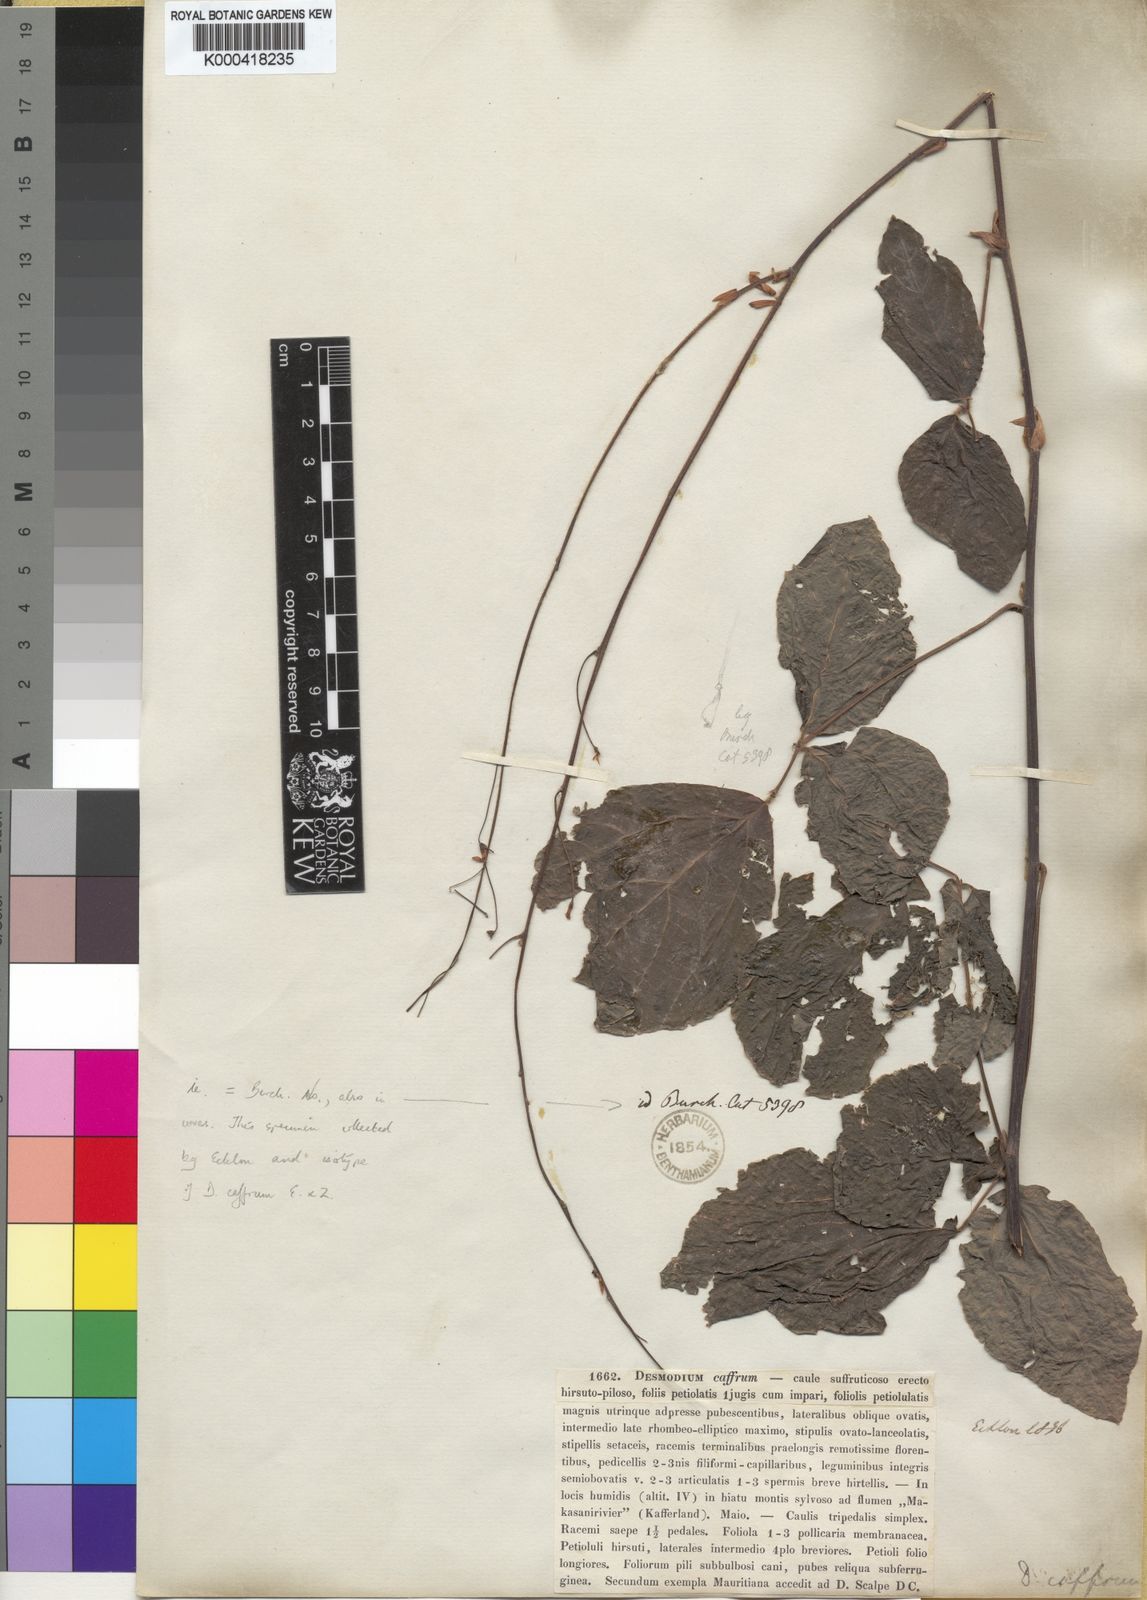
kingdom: Plantae
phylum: Tracheophyta
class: Magnoliopsida
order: Fabales
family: Fabaceae
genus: Desmodium
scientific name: Desmodium
